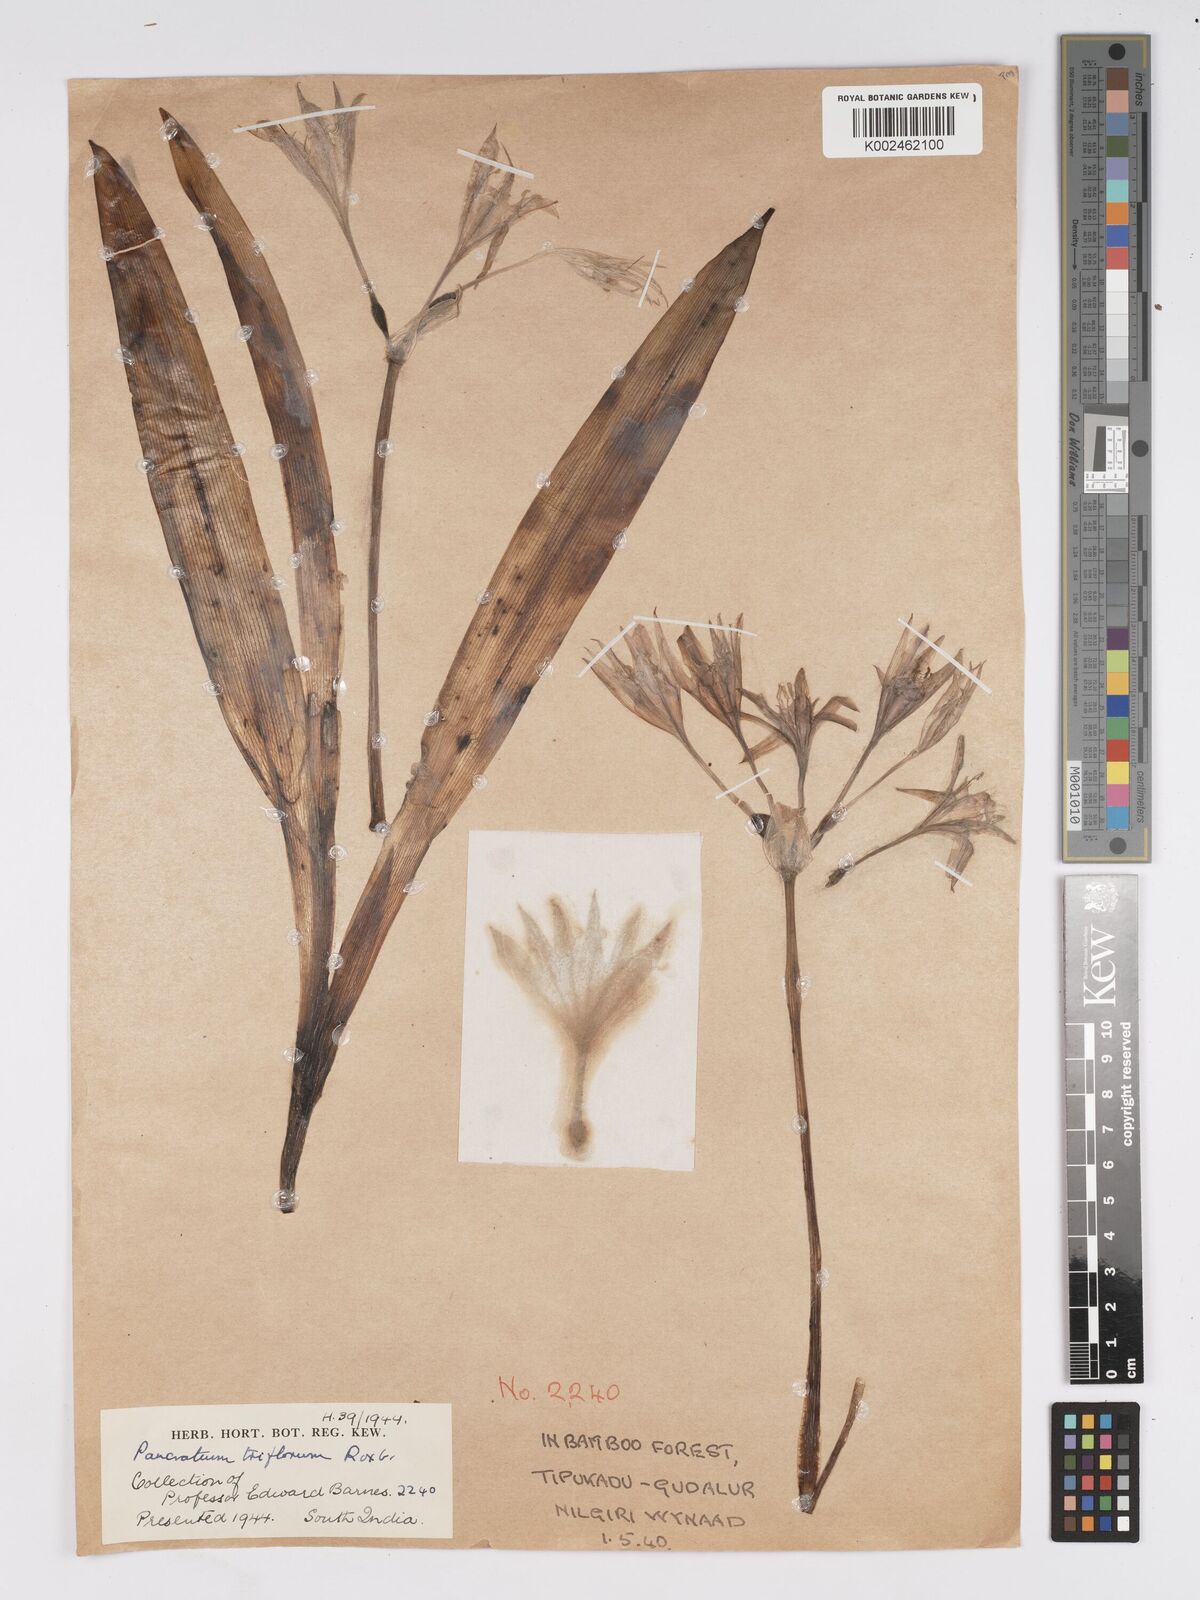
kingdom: Plantae
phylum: Tracheophyta
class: Liliopsida
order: Asparagales
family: Amaryllidaceae
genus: Pancratium
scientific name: Pancratium triflorum
